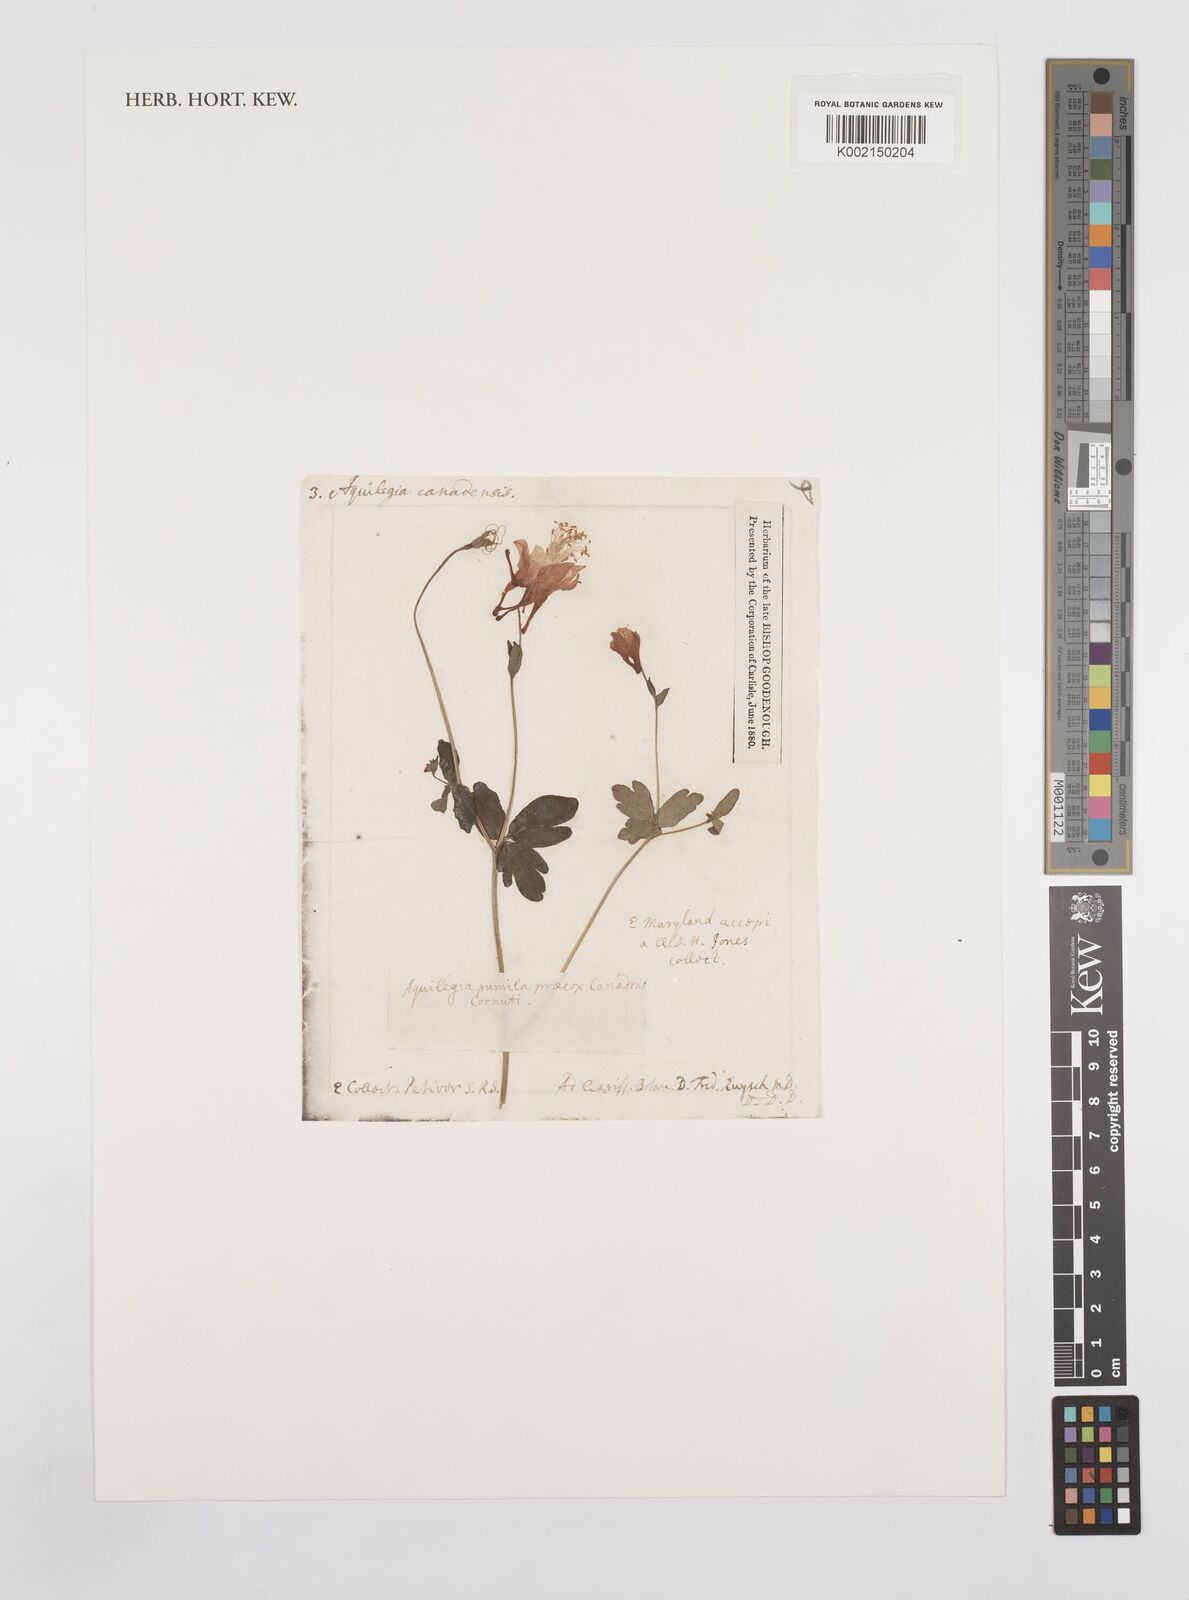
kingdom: Plantae
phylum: Tracheophyta
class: Magnoliopsida
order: Ranunculales
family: Ranunculaceae
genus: Aquilegia
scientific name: Aquilegia canadensis
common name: American columbine
